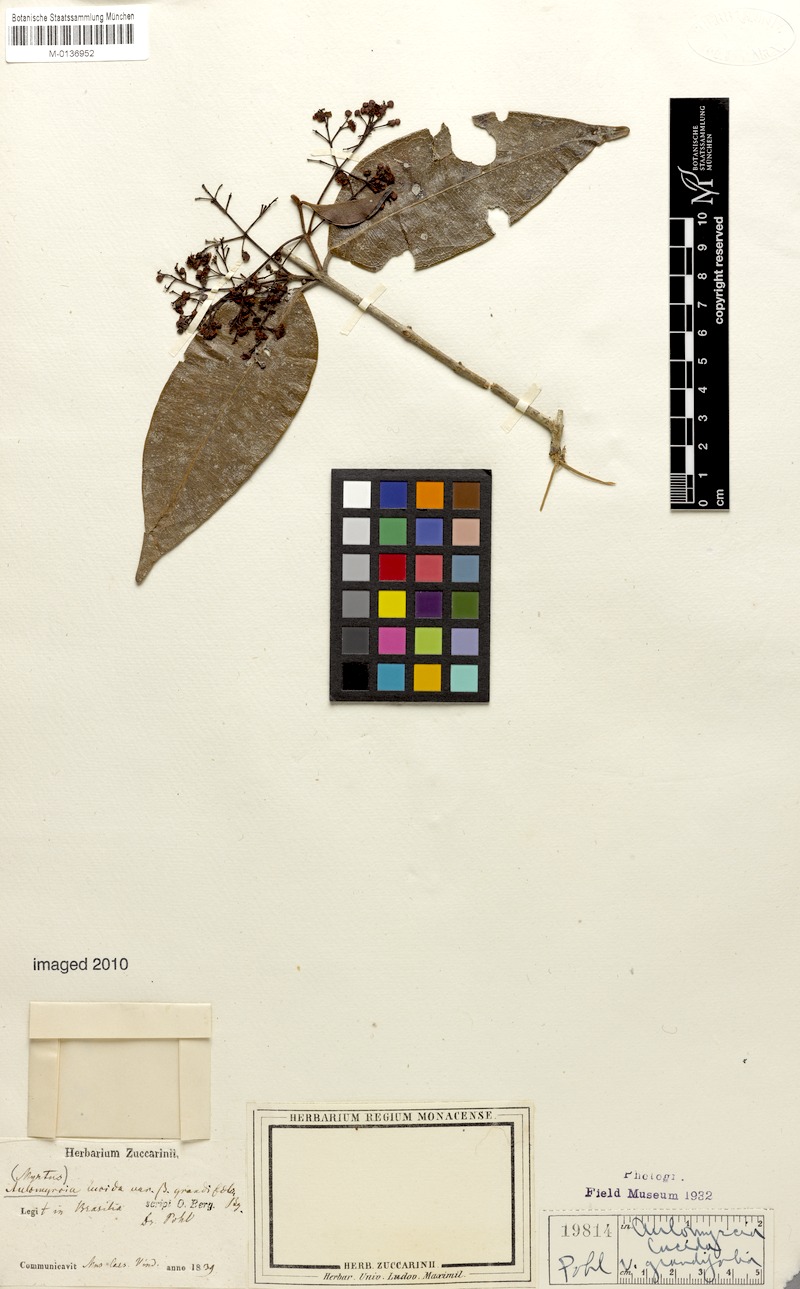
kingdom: Plantae
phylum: Tracheophyta
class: Magnoliopsida
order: Myrtales
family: Myrtaceae
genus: Myrcia
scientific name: Myrcia aethusa
